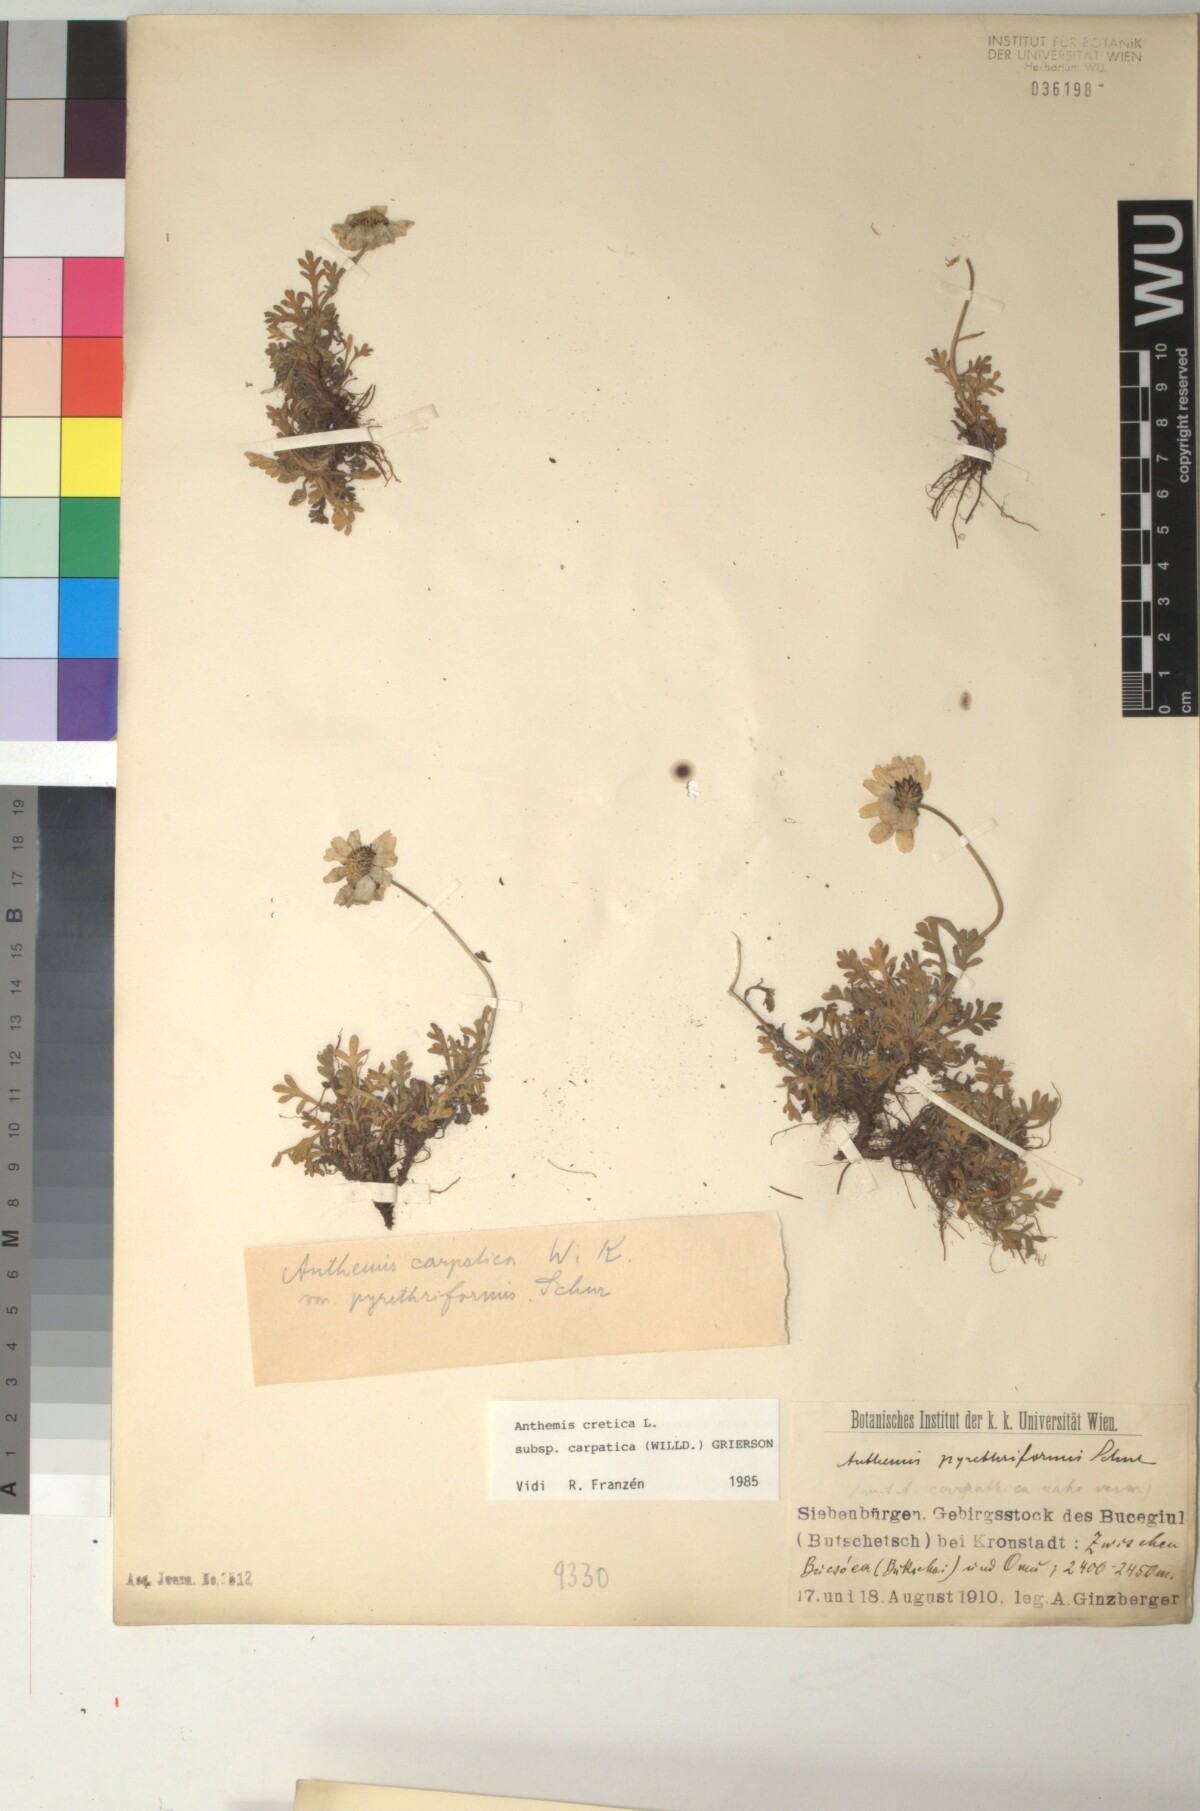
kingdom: Plantae
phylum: Tracheophyta
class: Magnoliopsida
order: Asterales
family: Asteraceae
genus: Anthemis
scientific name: Anthemis cretica
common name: Mountain dog-daisy
